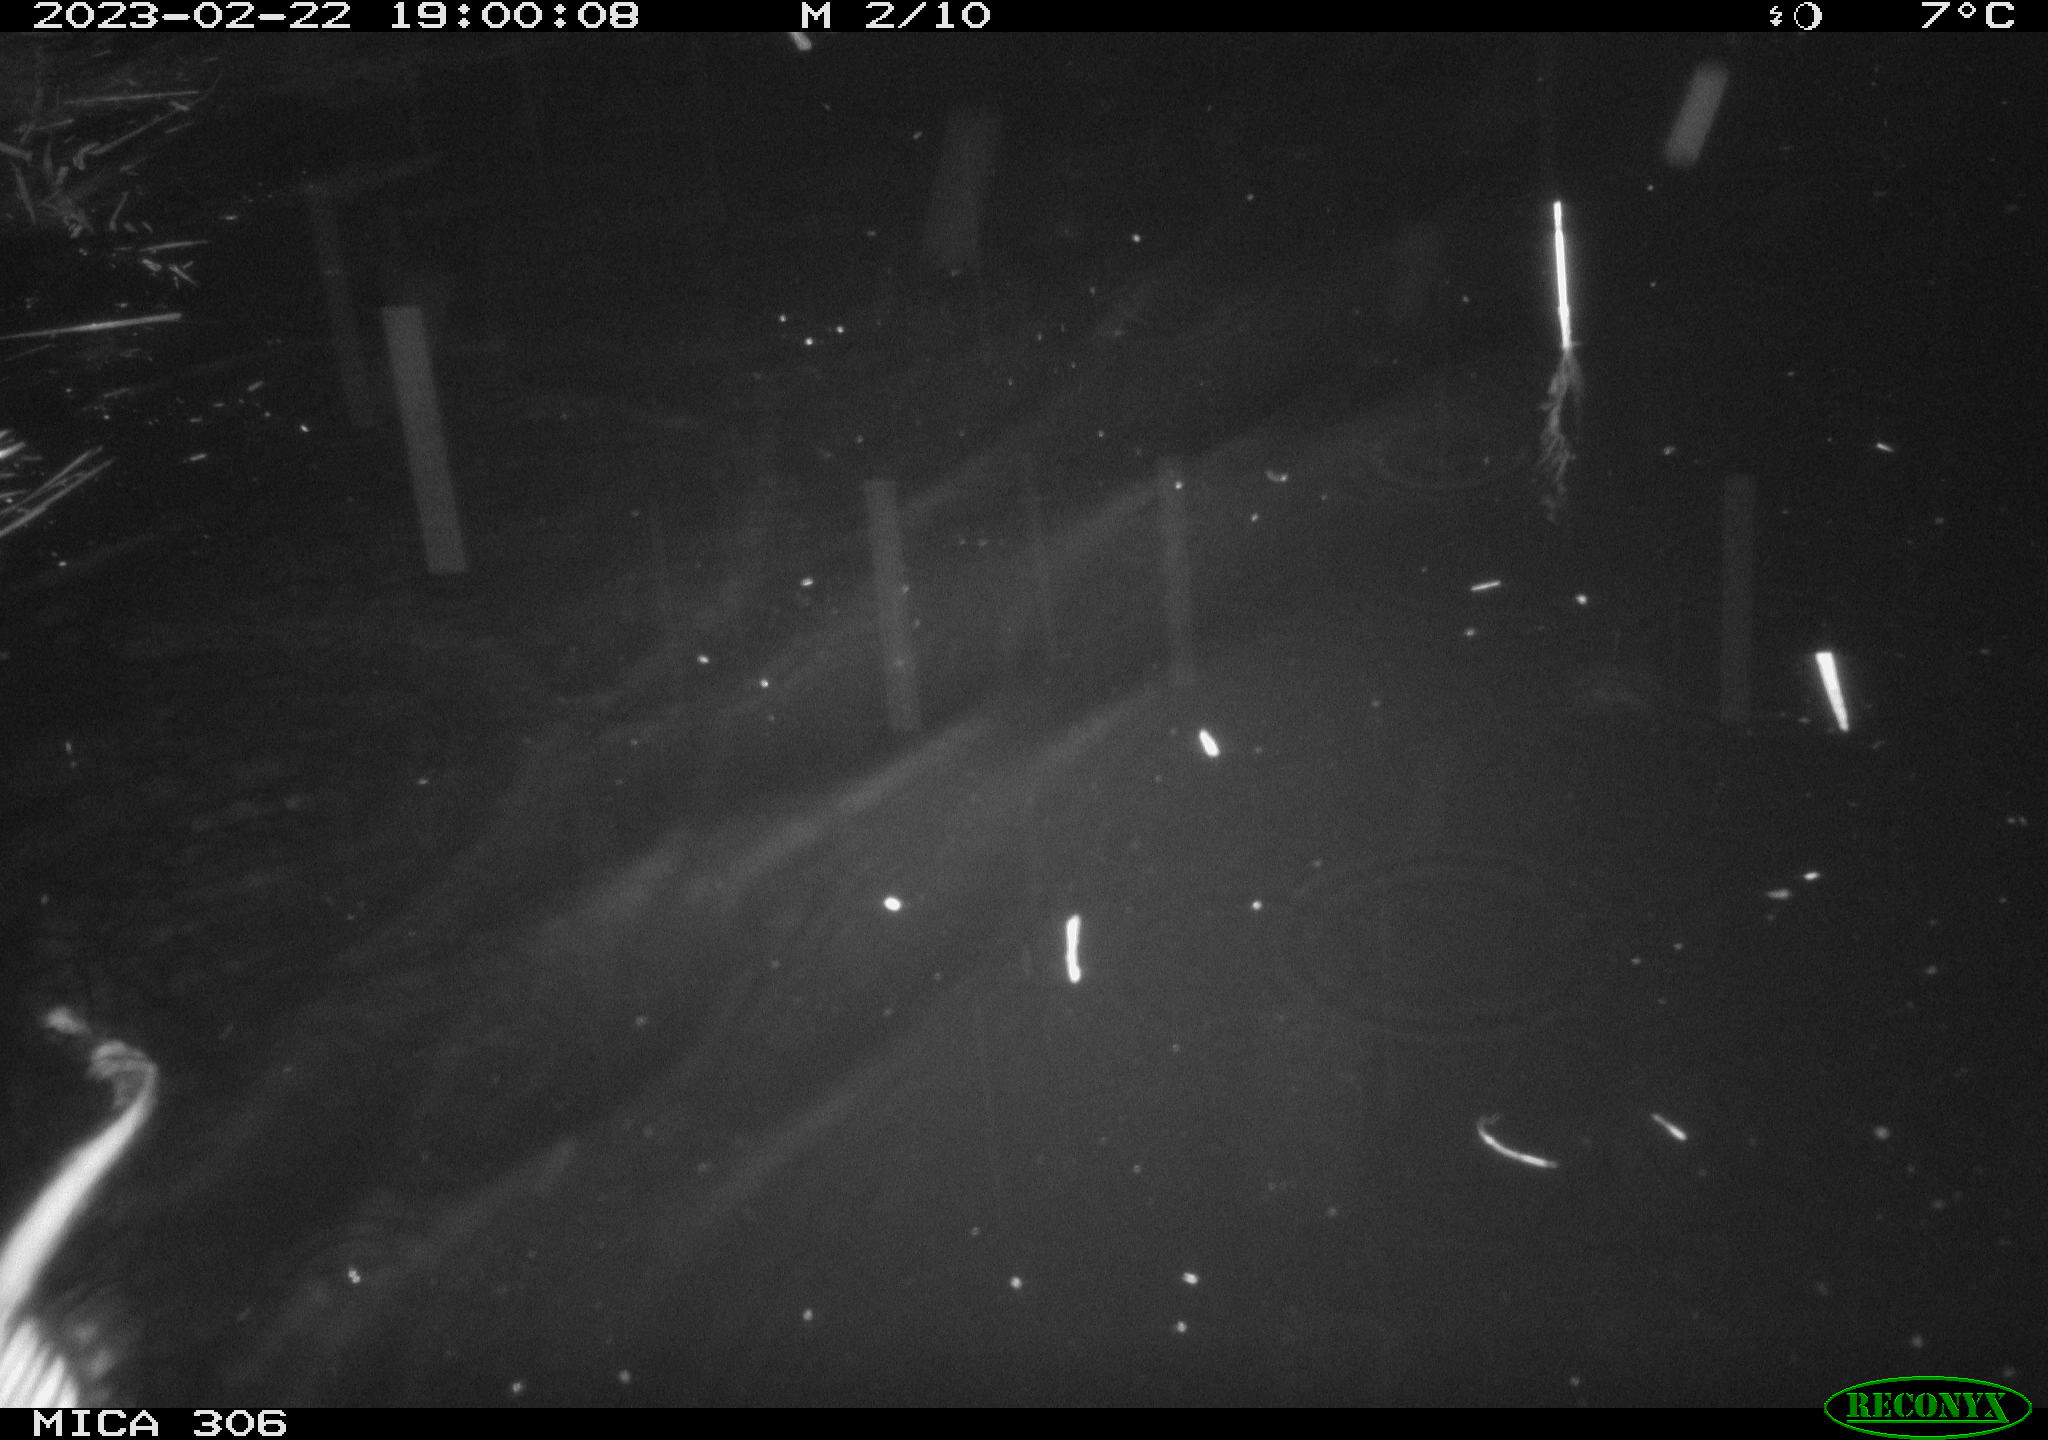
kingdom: Animalia
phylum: Chordata
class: Mammalia
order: Rodentia
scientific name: Rodentia
